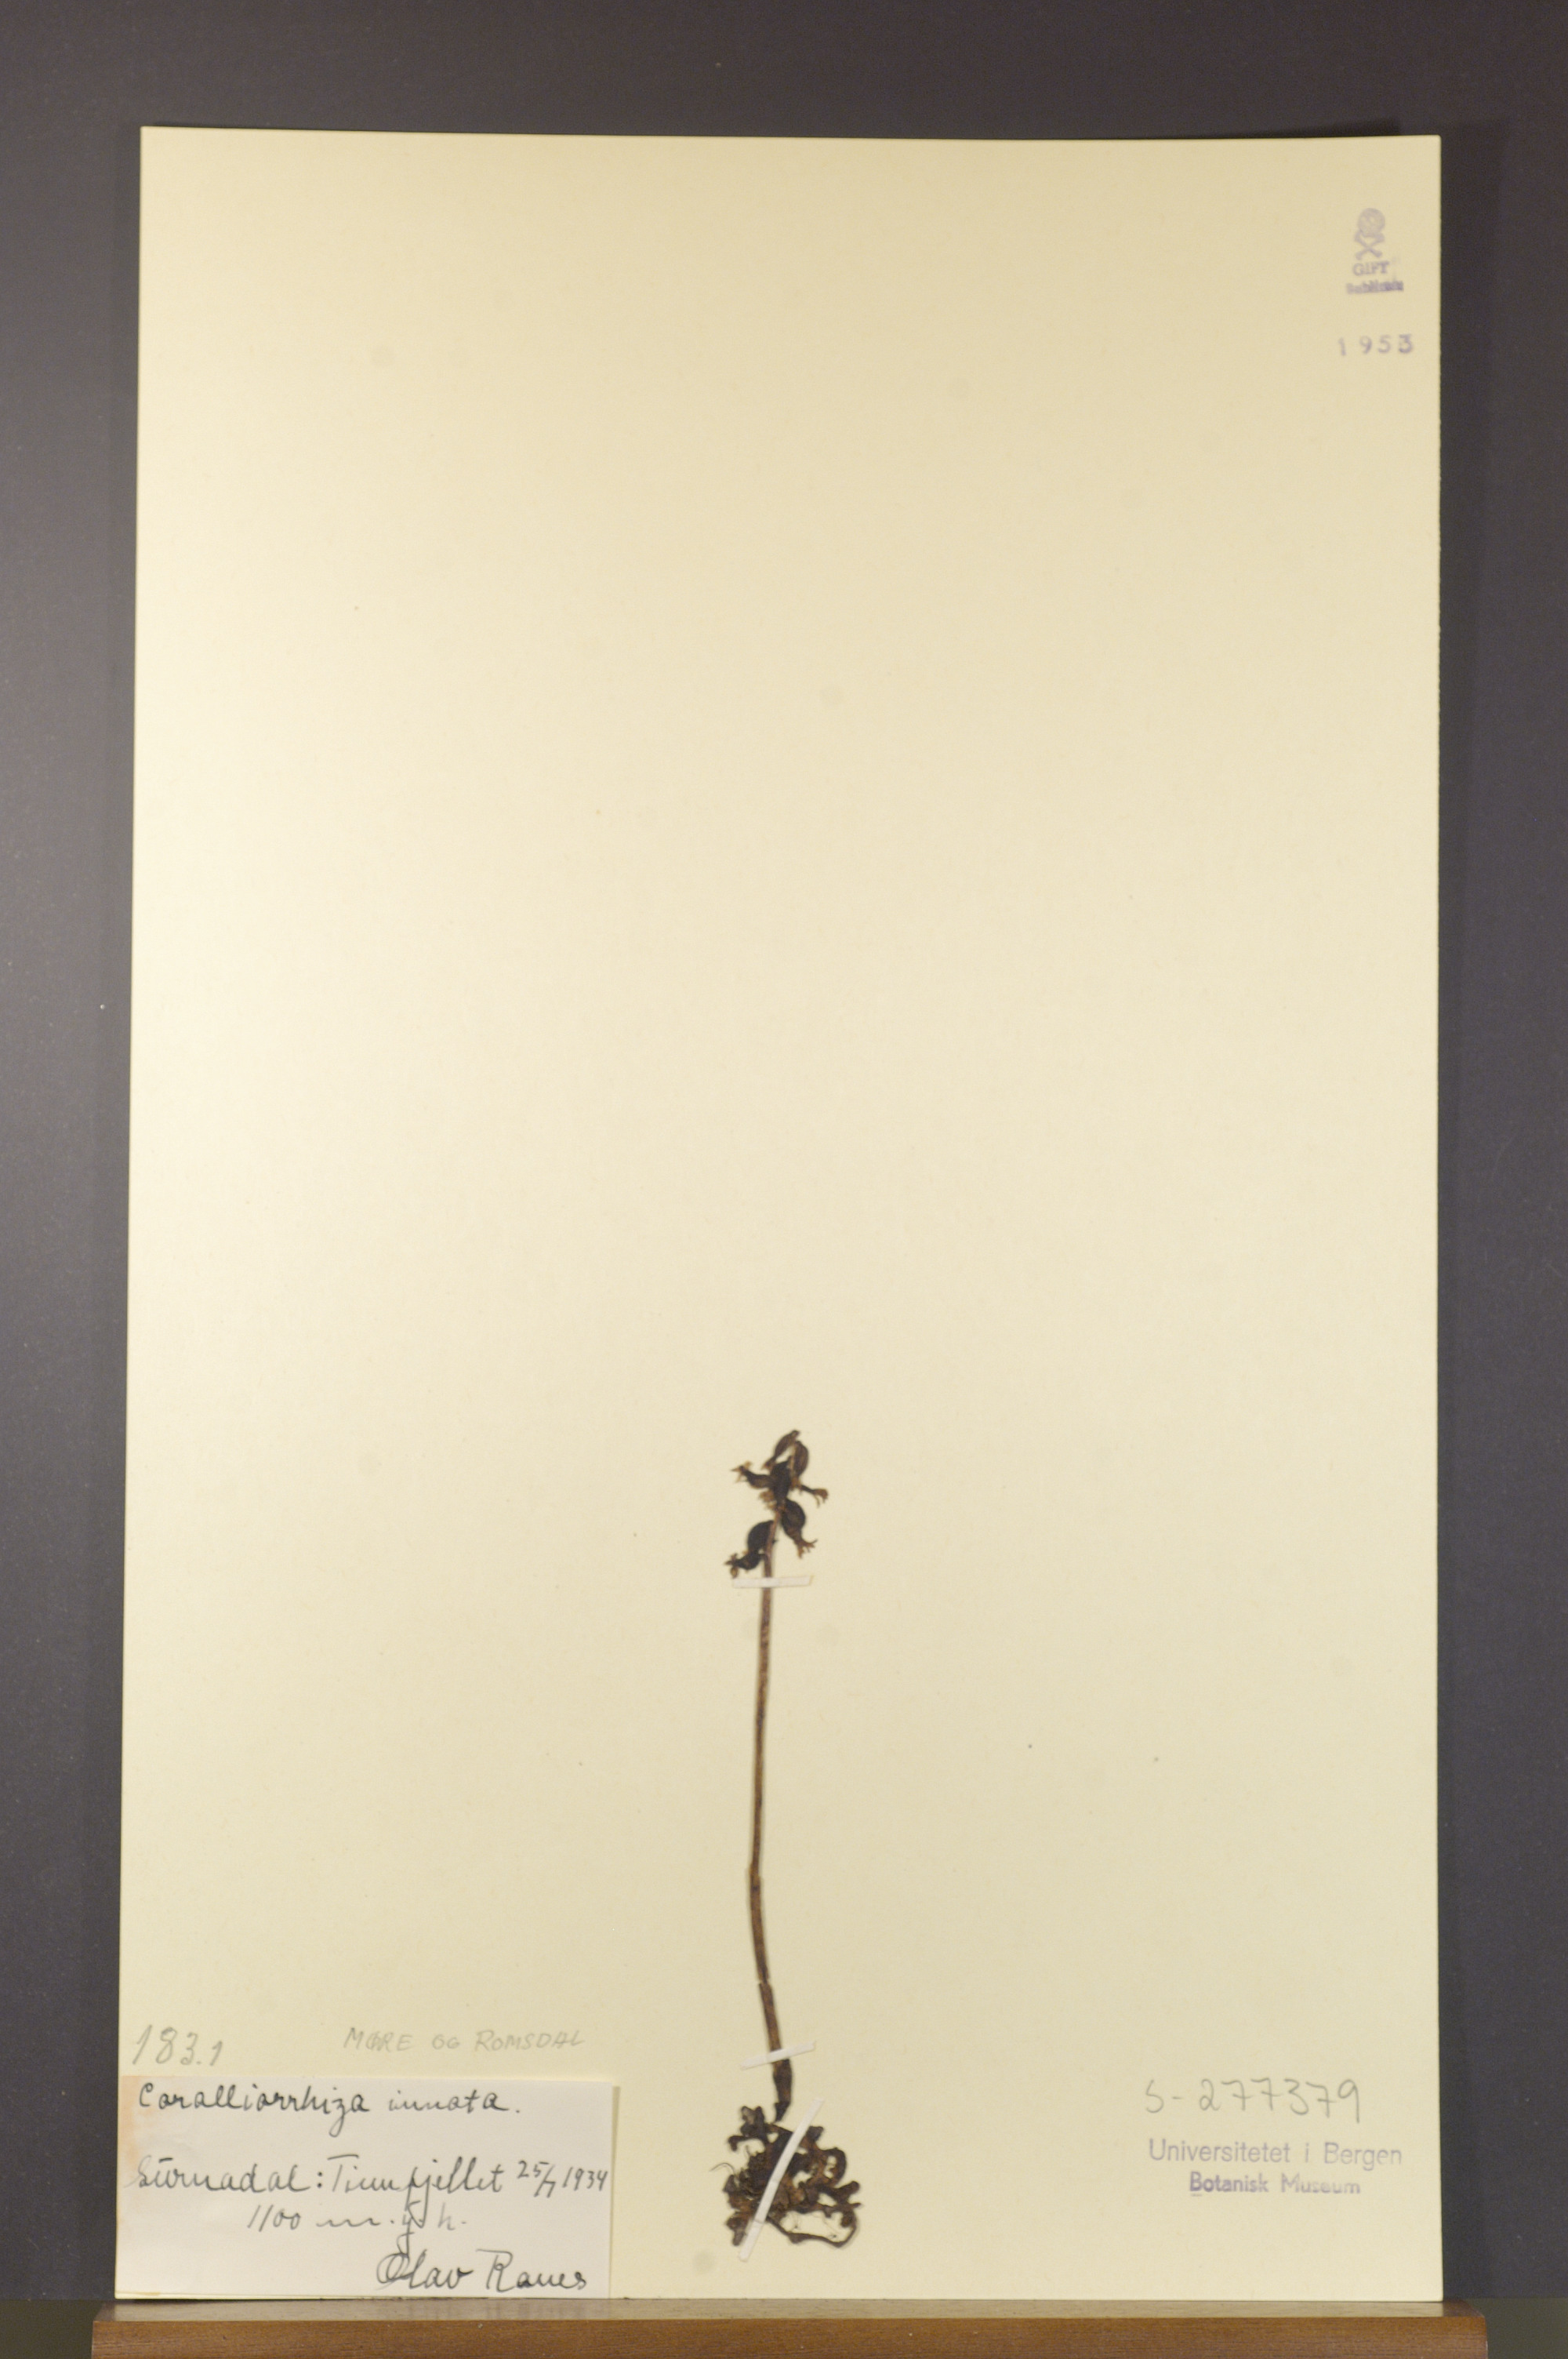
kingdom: Plantae
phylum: Tracheophyta
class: Liliopsida
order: Asparagales
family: Orchidaceae
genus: Corallorhiza
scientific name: Corallorhiza trifida
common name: Yellow coralroot
